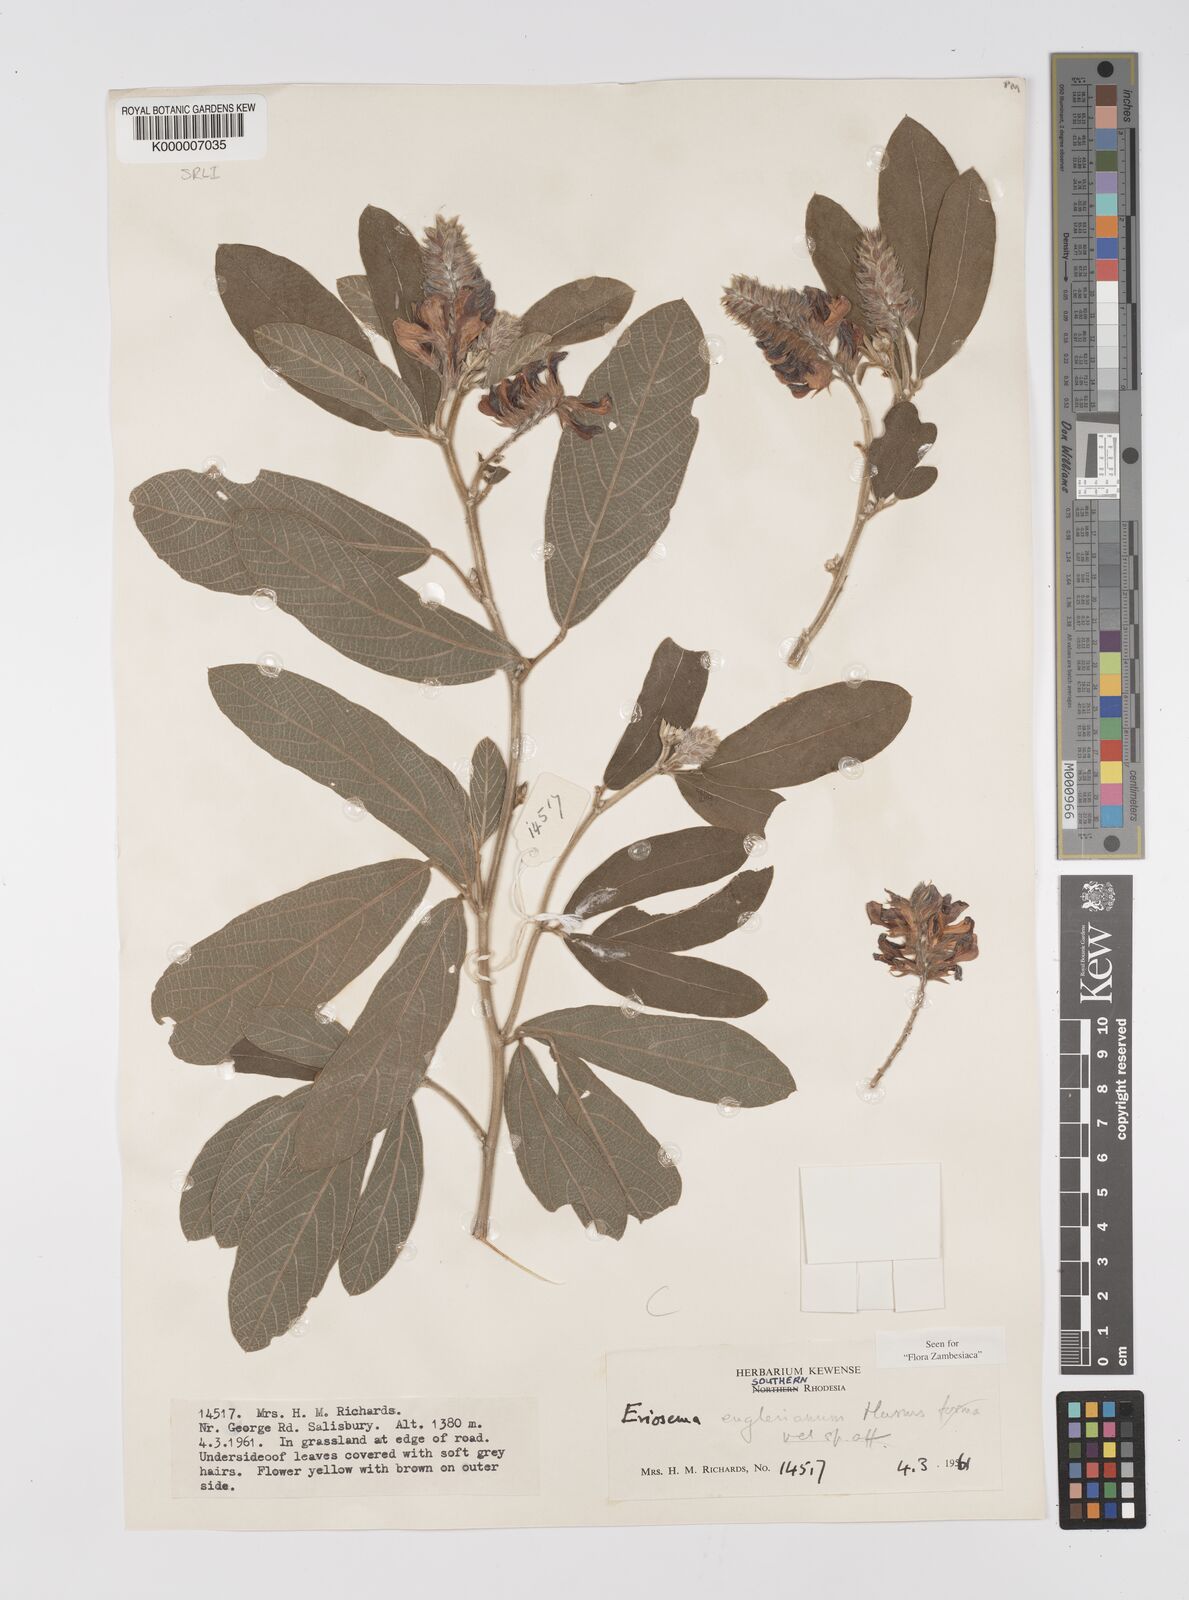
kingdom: Plantae
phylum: Tracheophyta
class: Magnoliopsida
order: Fabales
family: Fabaceae
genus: Eriosema
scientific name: Eriosema englerianum
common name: Blue bush
